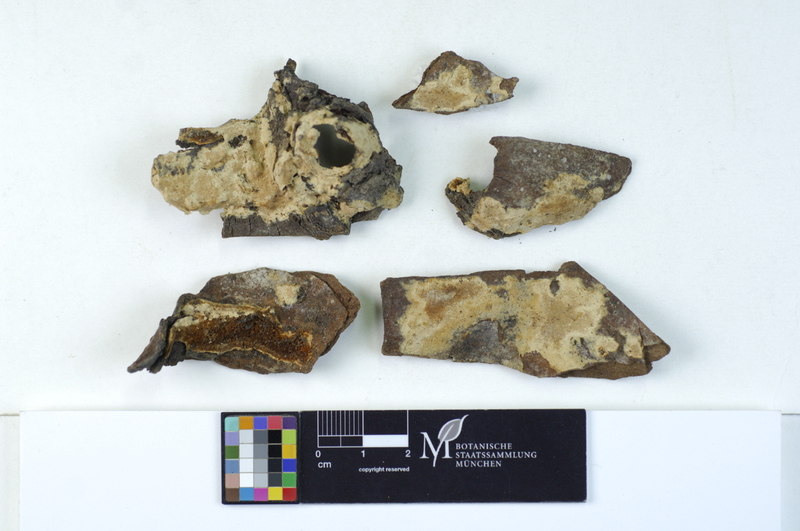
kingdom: Fungi
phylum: Basidiomycota
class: Agaricomycetes
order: Hymenochaetales
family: Oxyporaceae
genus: Oxyporus
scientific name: Oxyporus obducens
